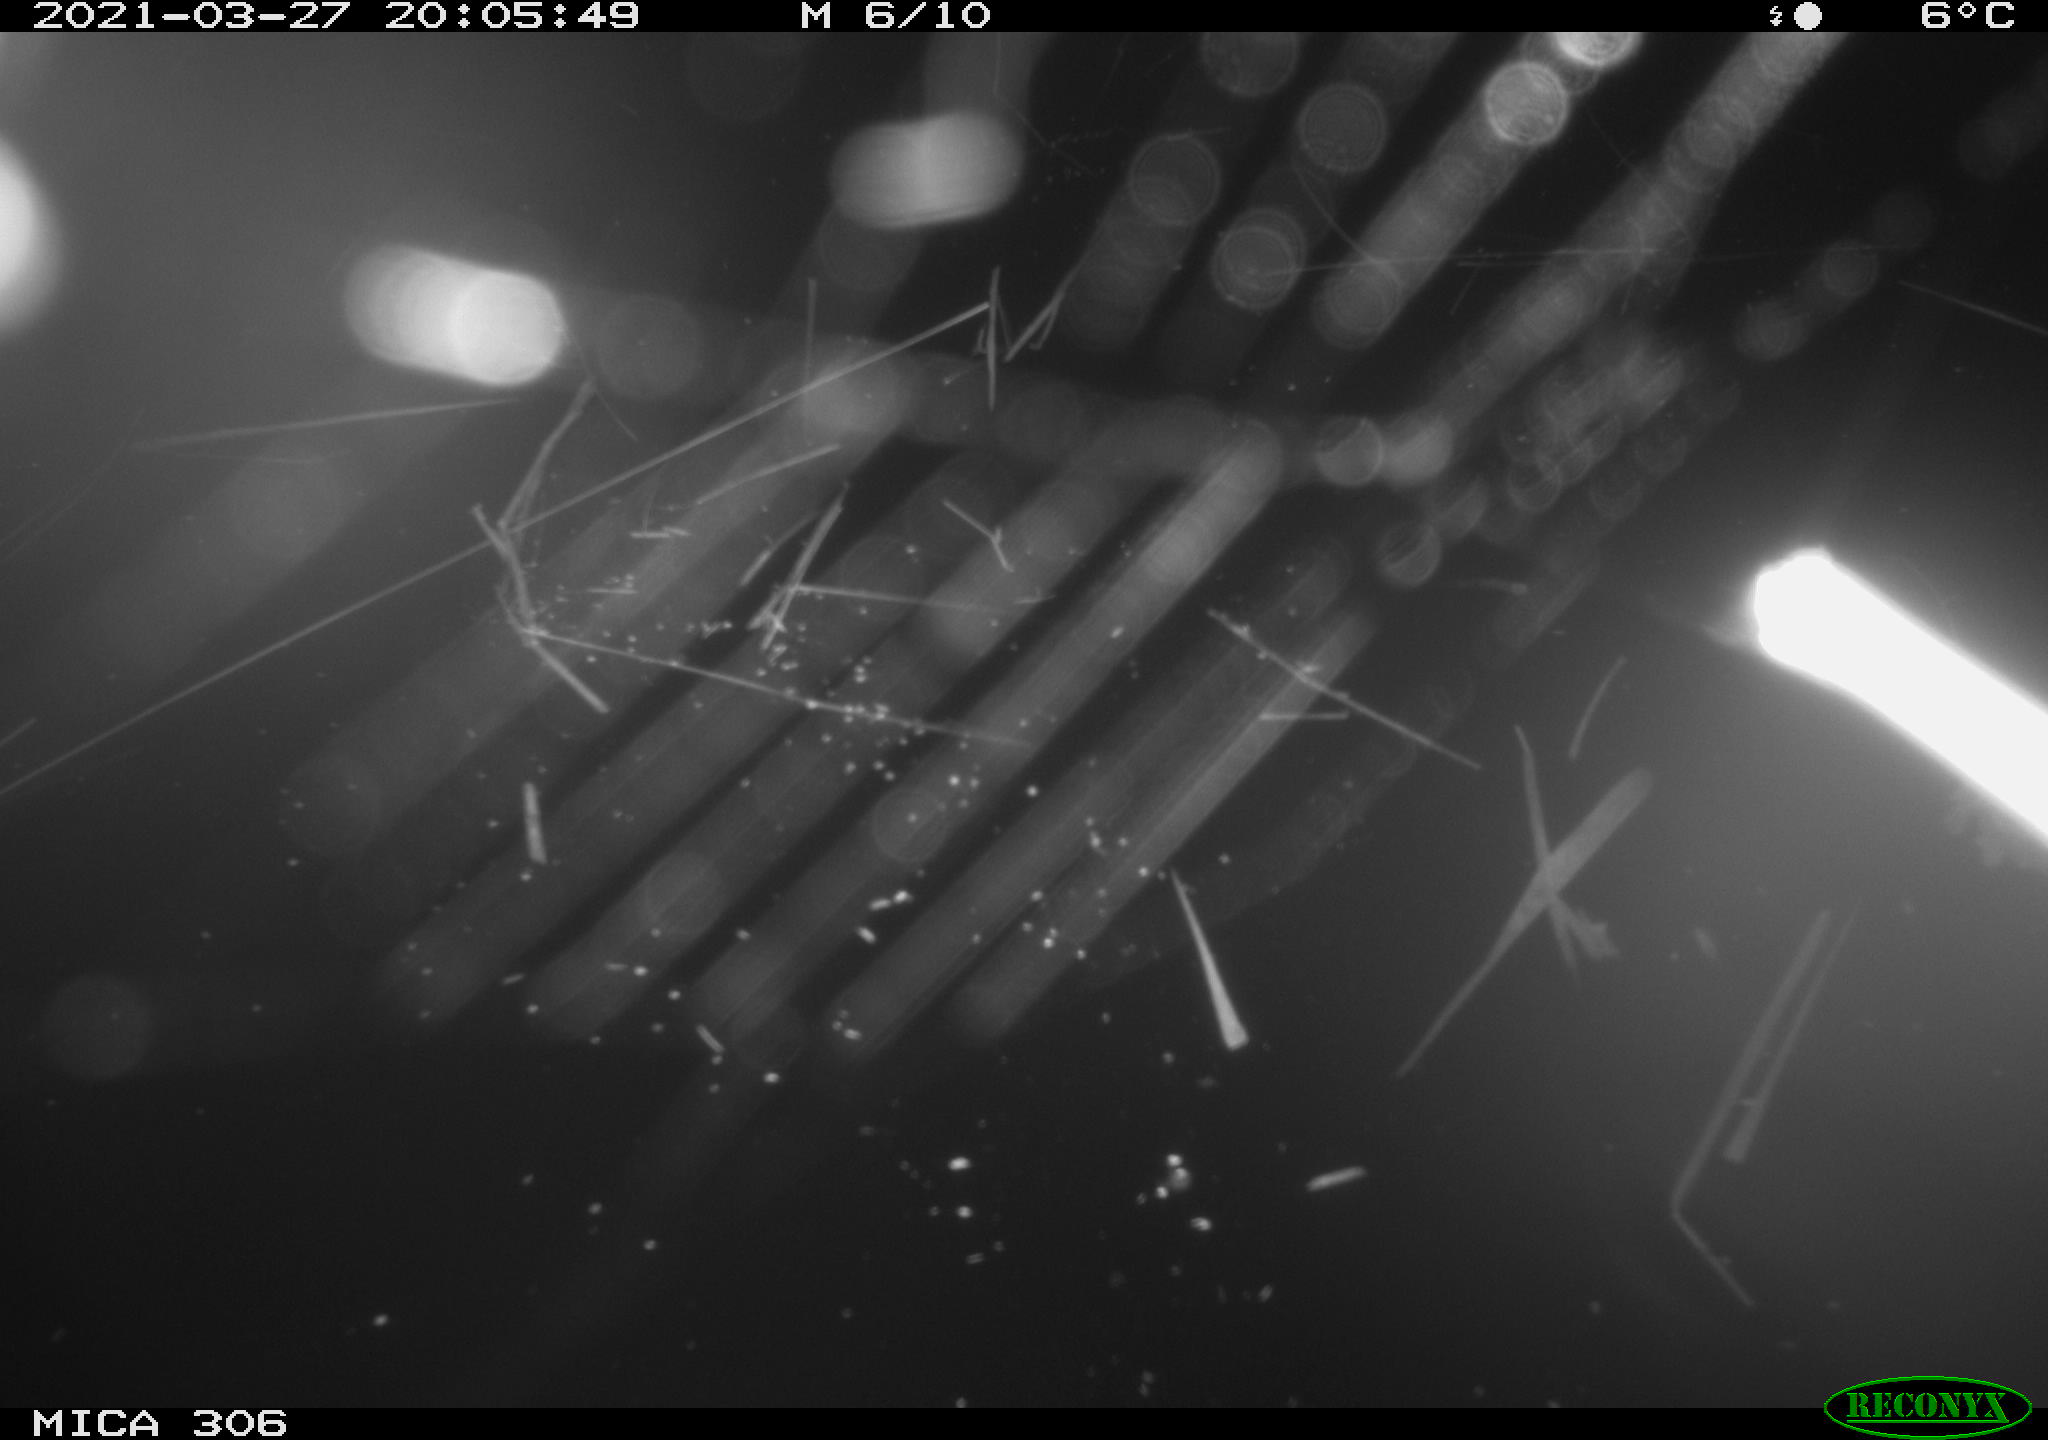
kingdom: Animalia
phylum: Chordata
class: Mammalia
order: Rodentia
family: Cricetidae
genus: Ondatra
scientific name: Ondatra zibethicus
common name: Muskrat
